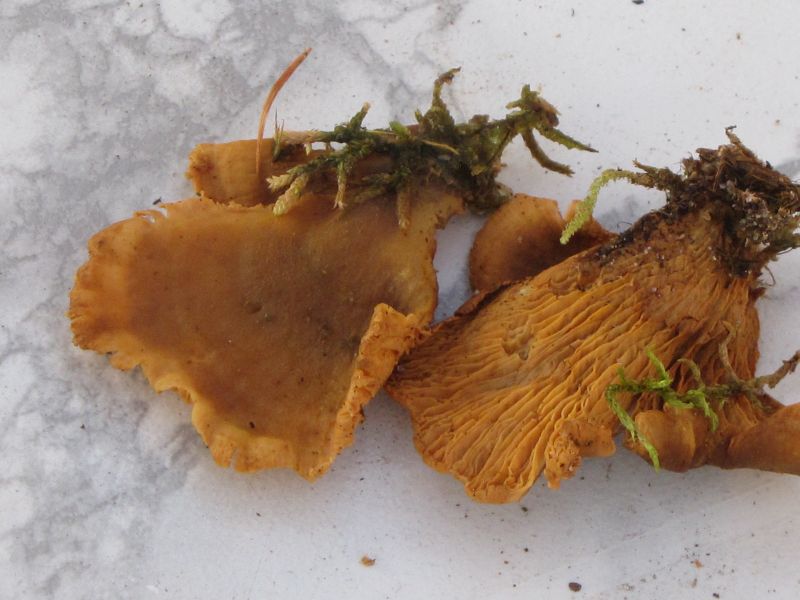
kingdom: Fungi
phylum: Basidiomycota
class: Agaricomycetes
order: Boletales
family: Tapinellaceae
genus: Tapinella
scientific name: Tapinella panuoides
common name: tømmer-viftesvamp
